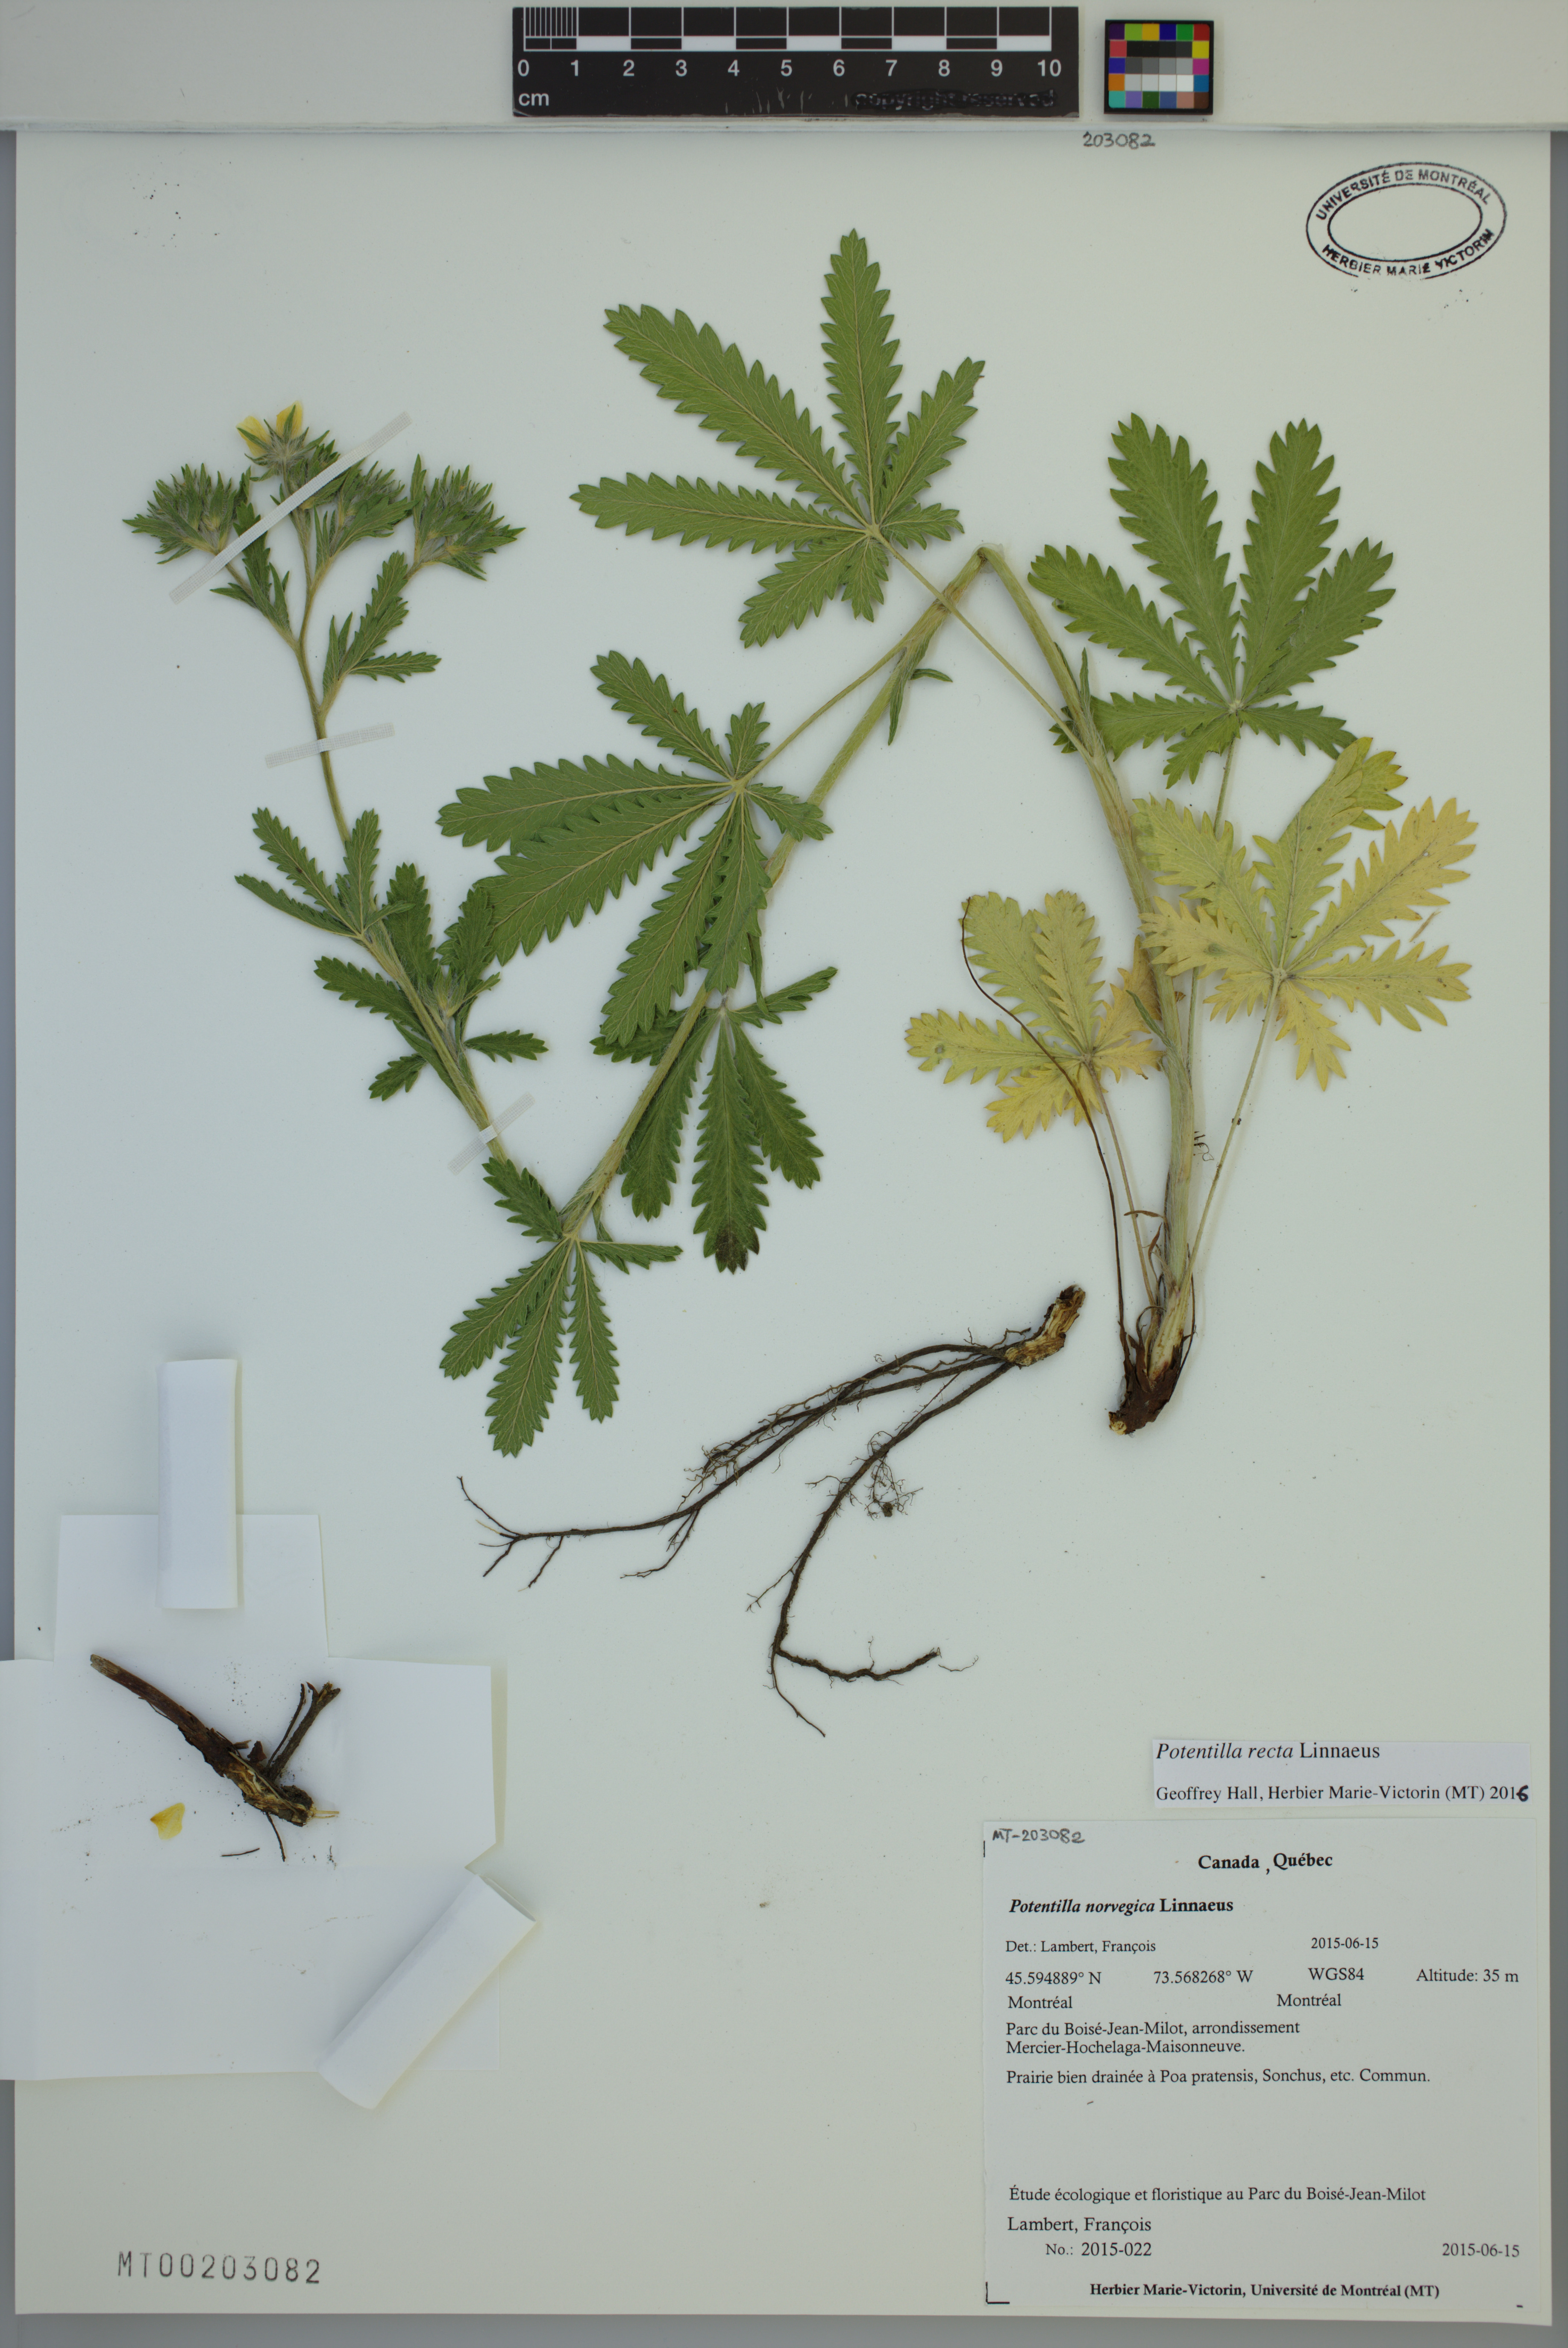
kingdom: Plantae
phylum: Tracheophyta
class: Magnoliopsida
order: Rosales
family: Rosaceae
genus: Potentilla
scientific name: Potentilla recta
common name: Sulphur cinquefoil
